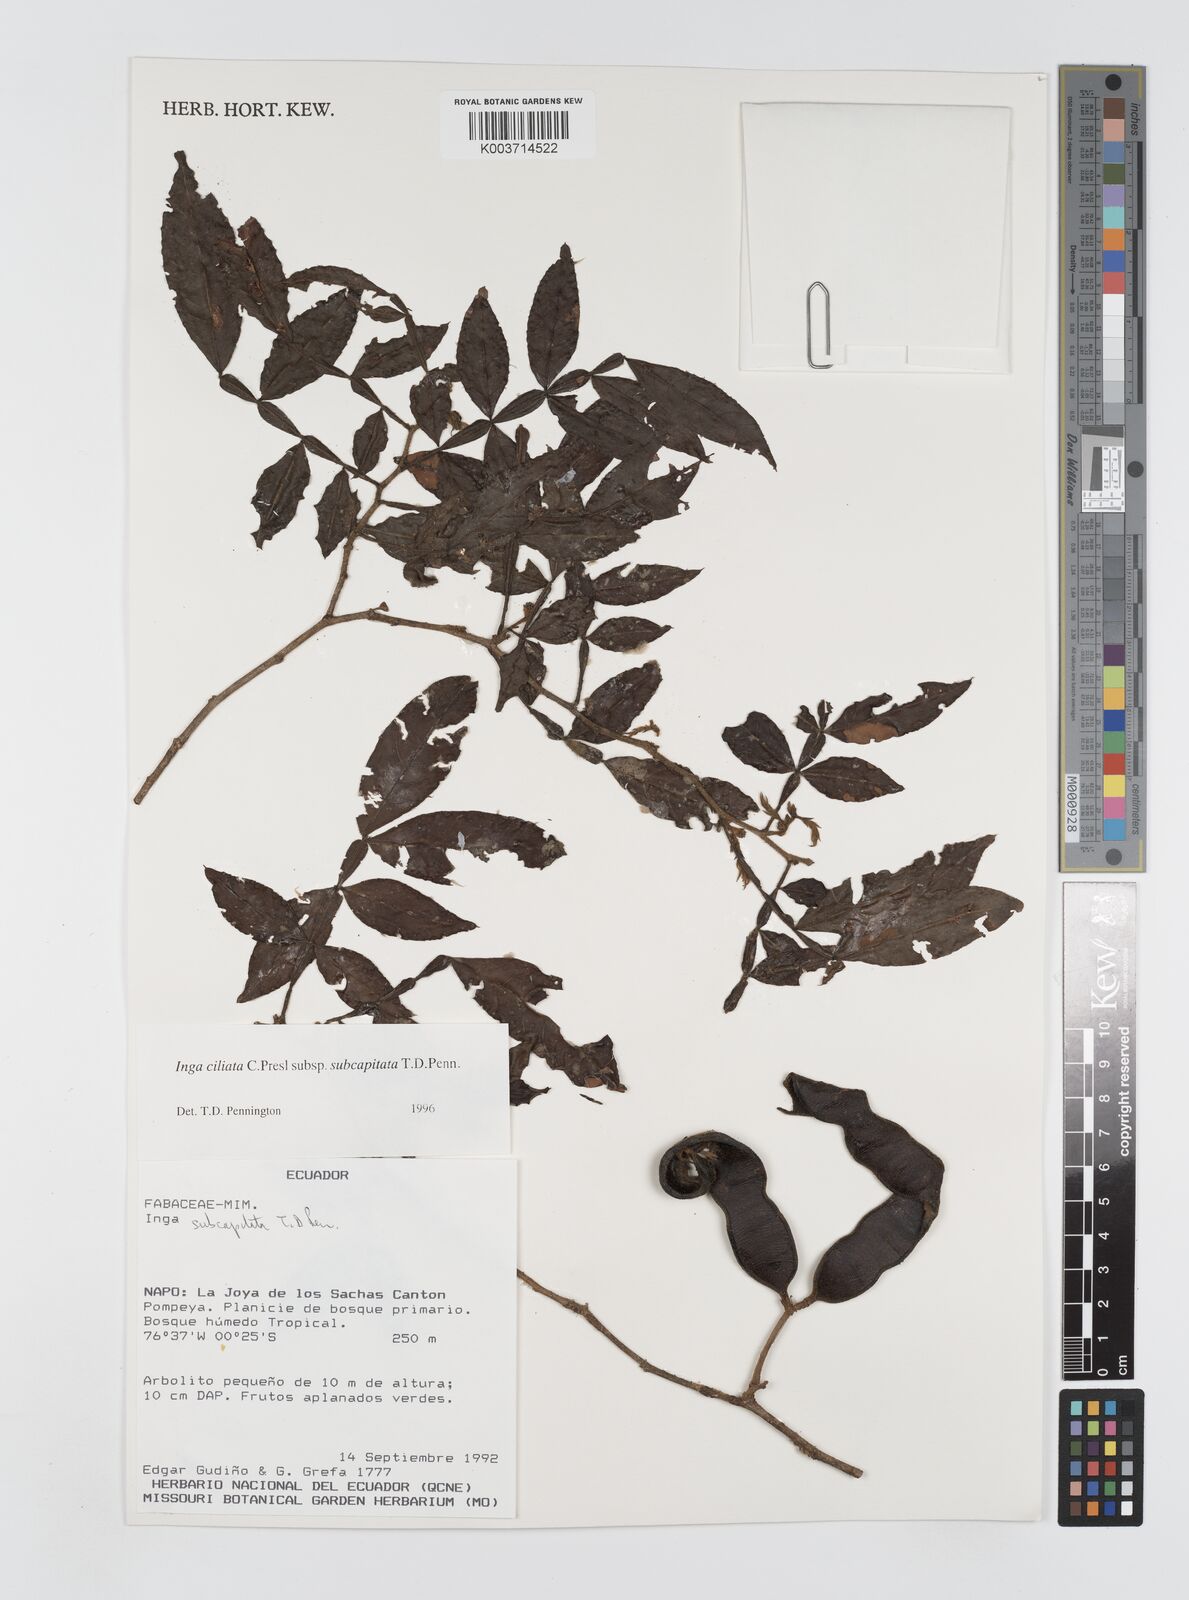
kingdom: Plantae
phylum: Tracheophyta
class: Magnoliopsida
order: Fabales
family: Fabaceae
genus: Inga
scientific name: Inga ciliata
